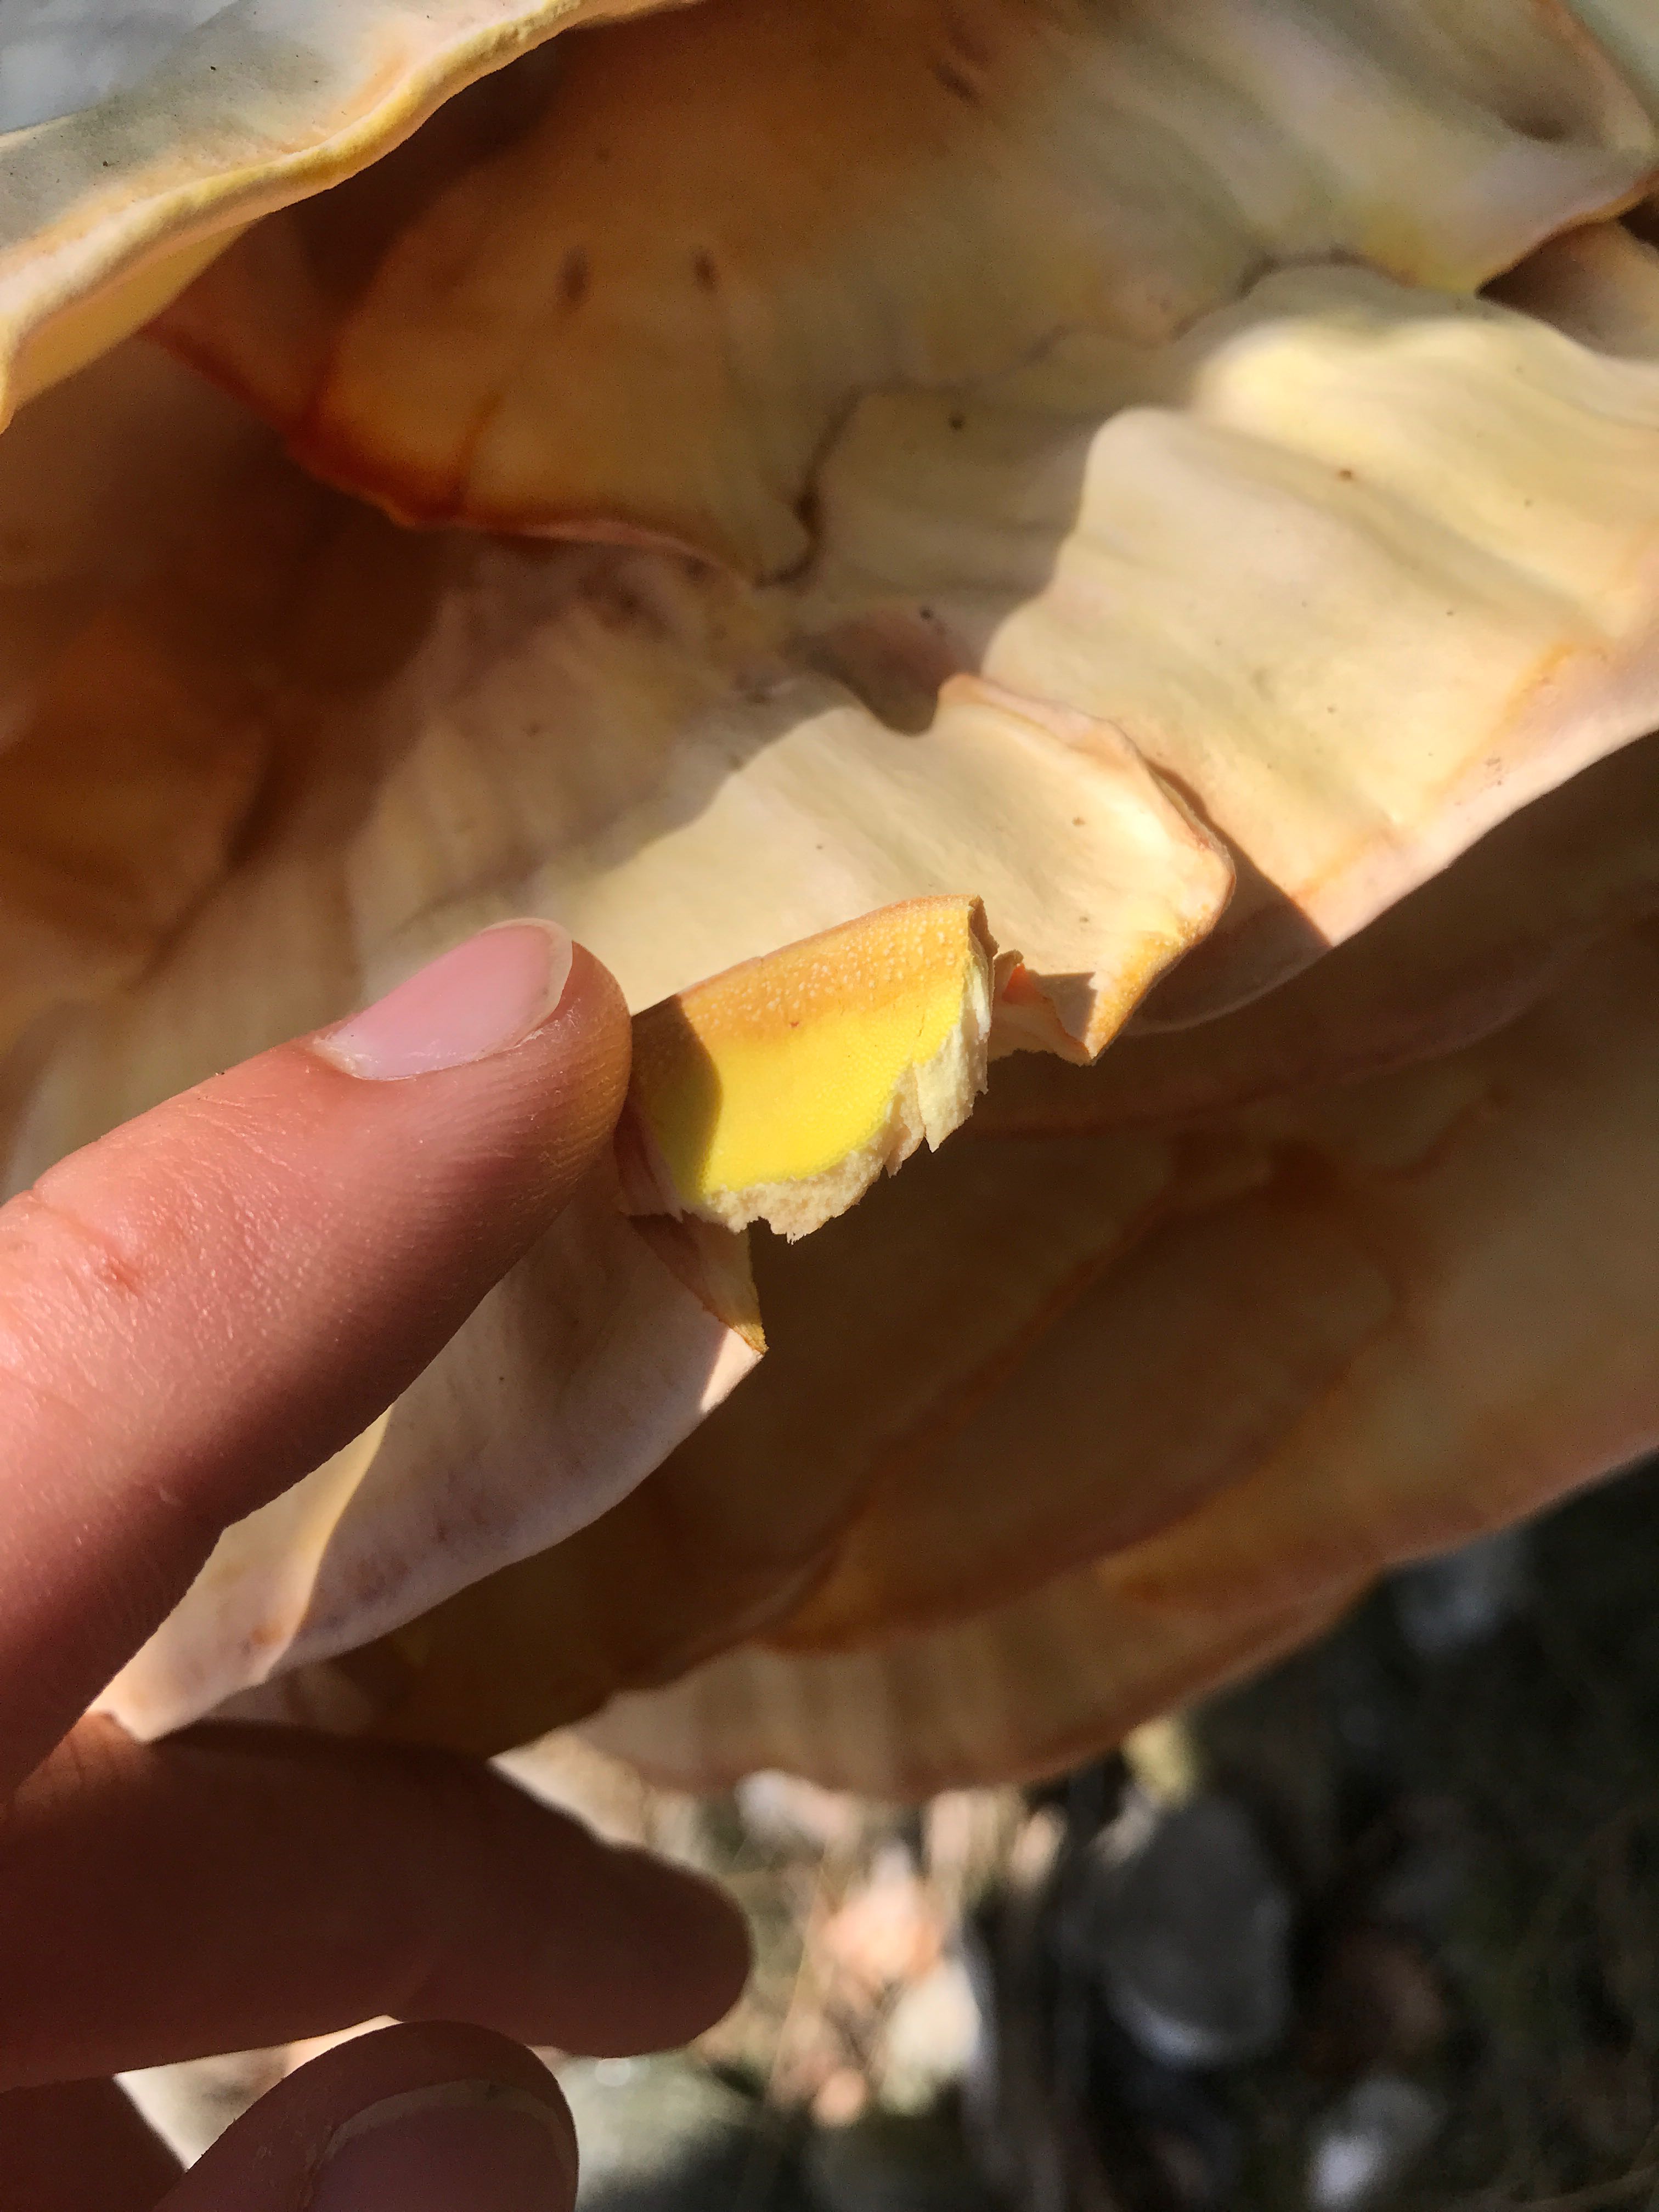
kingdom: Fungi
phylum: Basidiomycota
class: Agaricomycetes
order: Polyporales
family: Laetiporaceae
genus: Laetiporus
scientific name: Laetiporus sulphureus
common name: svovlporesvamp
